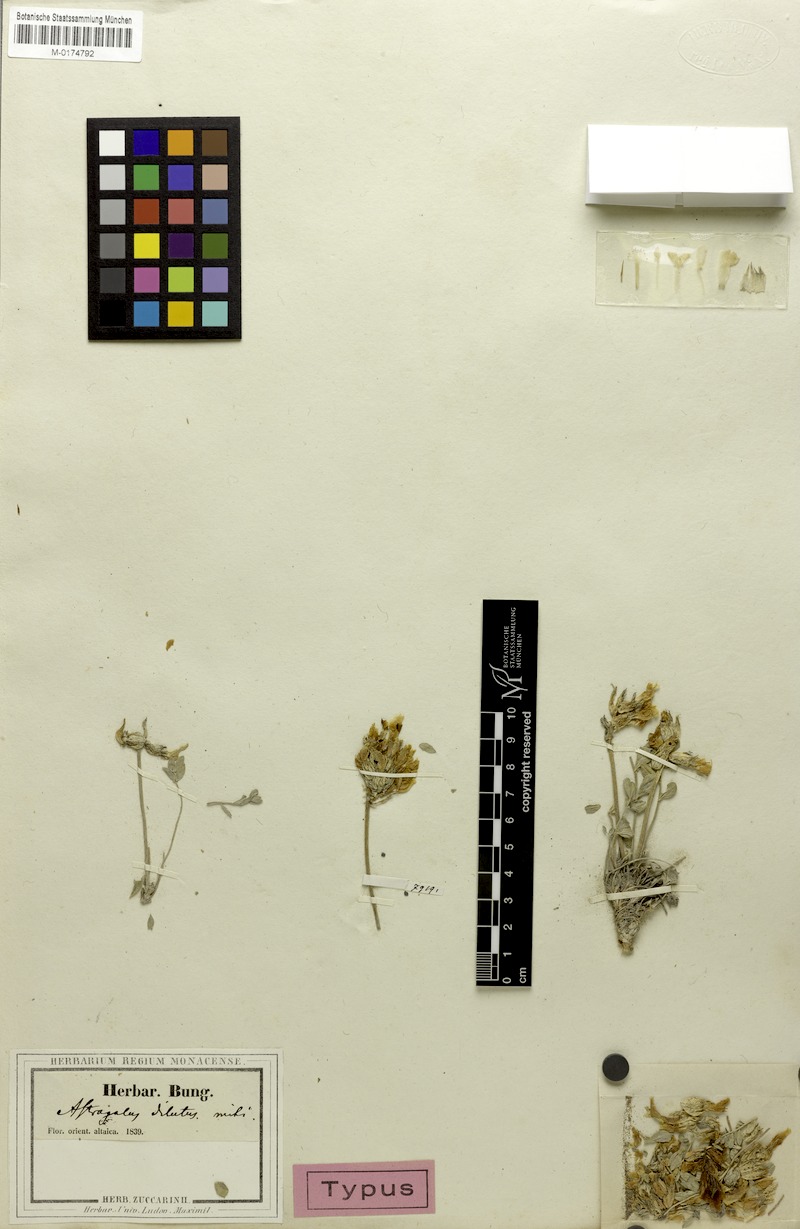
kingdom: Plantae
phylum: Tracheophyta
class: Magnoliopsida
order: Fabales
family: Fabaceae
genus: Astragalus
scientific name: Astragalus dilutus
